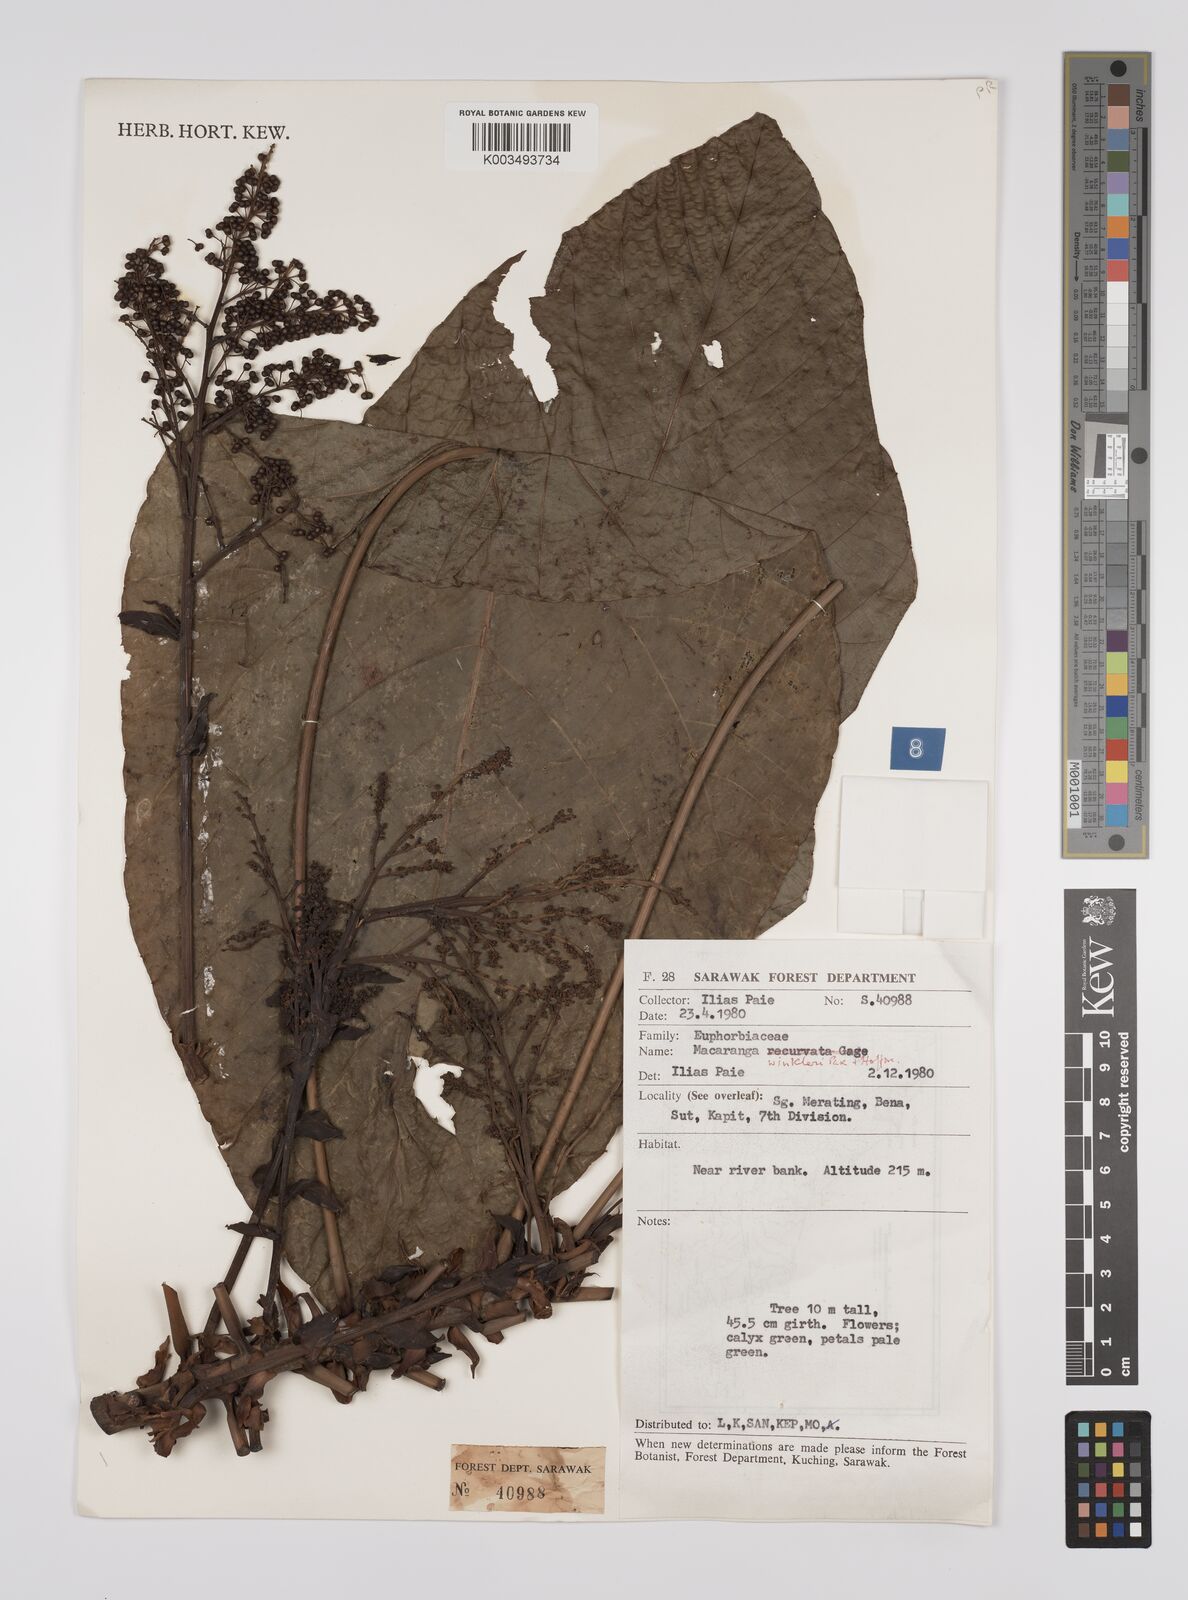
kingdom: Plantae
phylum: Tracheophyta
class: Magnoliopsida
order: Malpighiales
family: Euphorbiaceae
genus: Macaranga
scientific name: Macaranga winkleri
